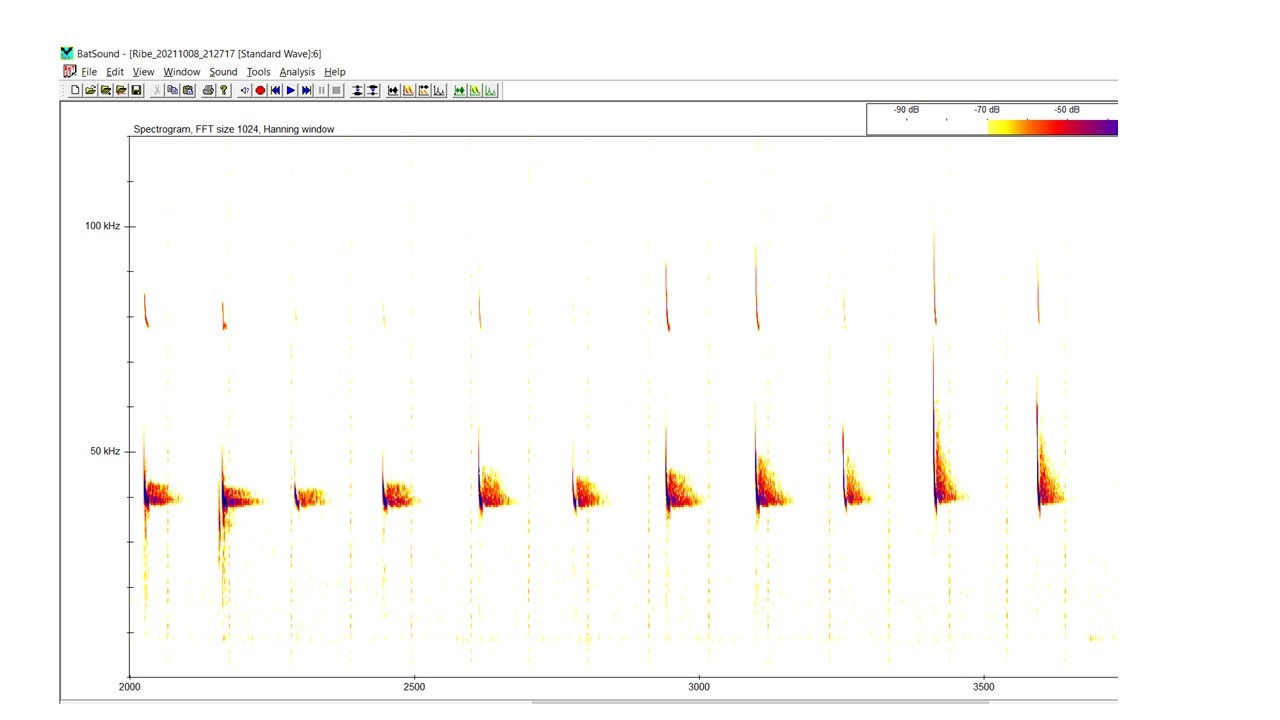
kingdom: Animalia
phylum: Chordata
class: Mammalia
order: Chiroptera
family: Vespertilionidae
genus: Pipistrellus
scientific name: Pipistrellus nathusii
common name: Troldflagermus
